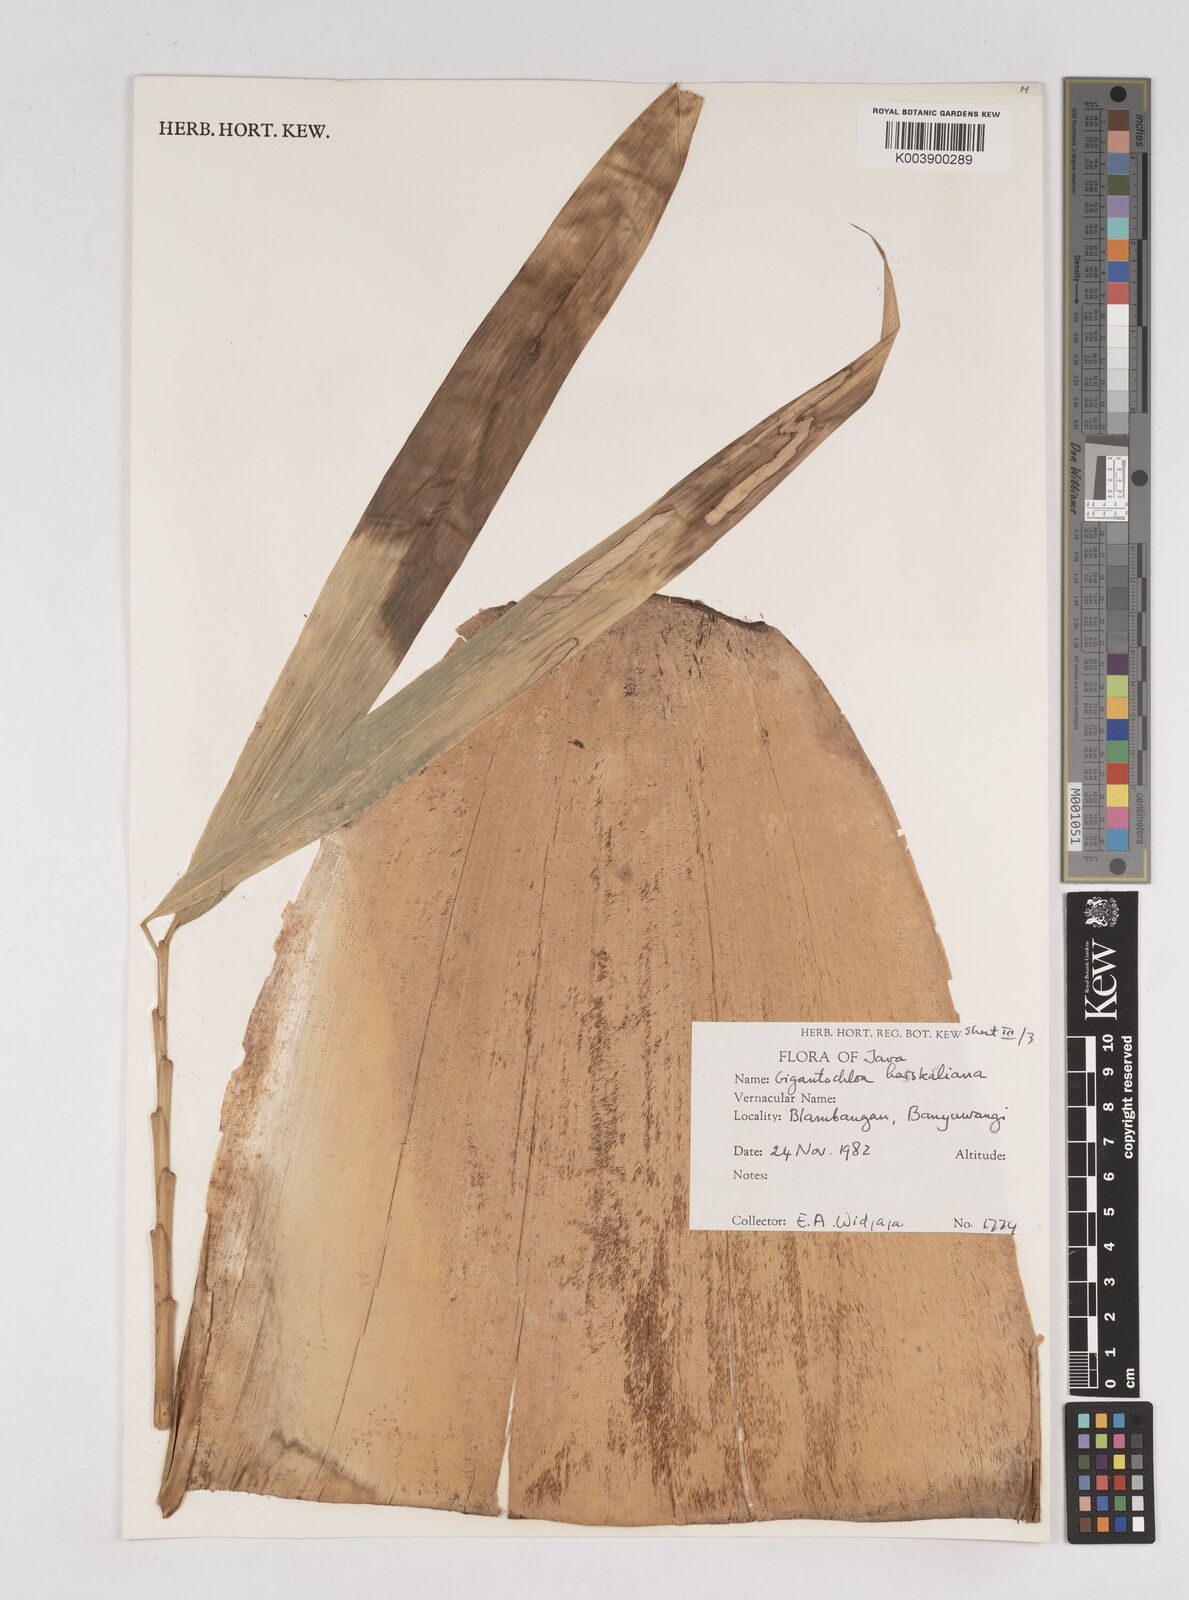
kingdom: Plantae
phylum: Tracheophyta
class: Liliopsida
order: Poales
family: Poaceae
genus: Gigantochloa
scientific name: Gigantochloa hasskarliana
